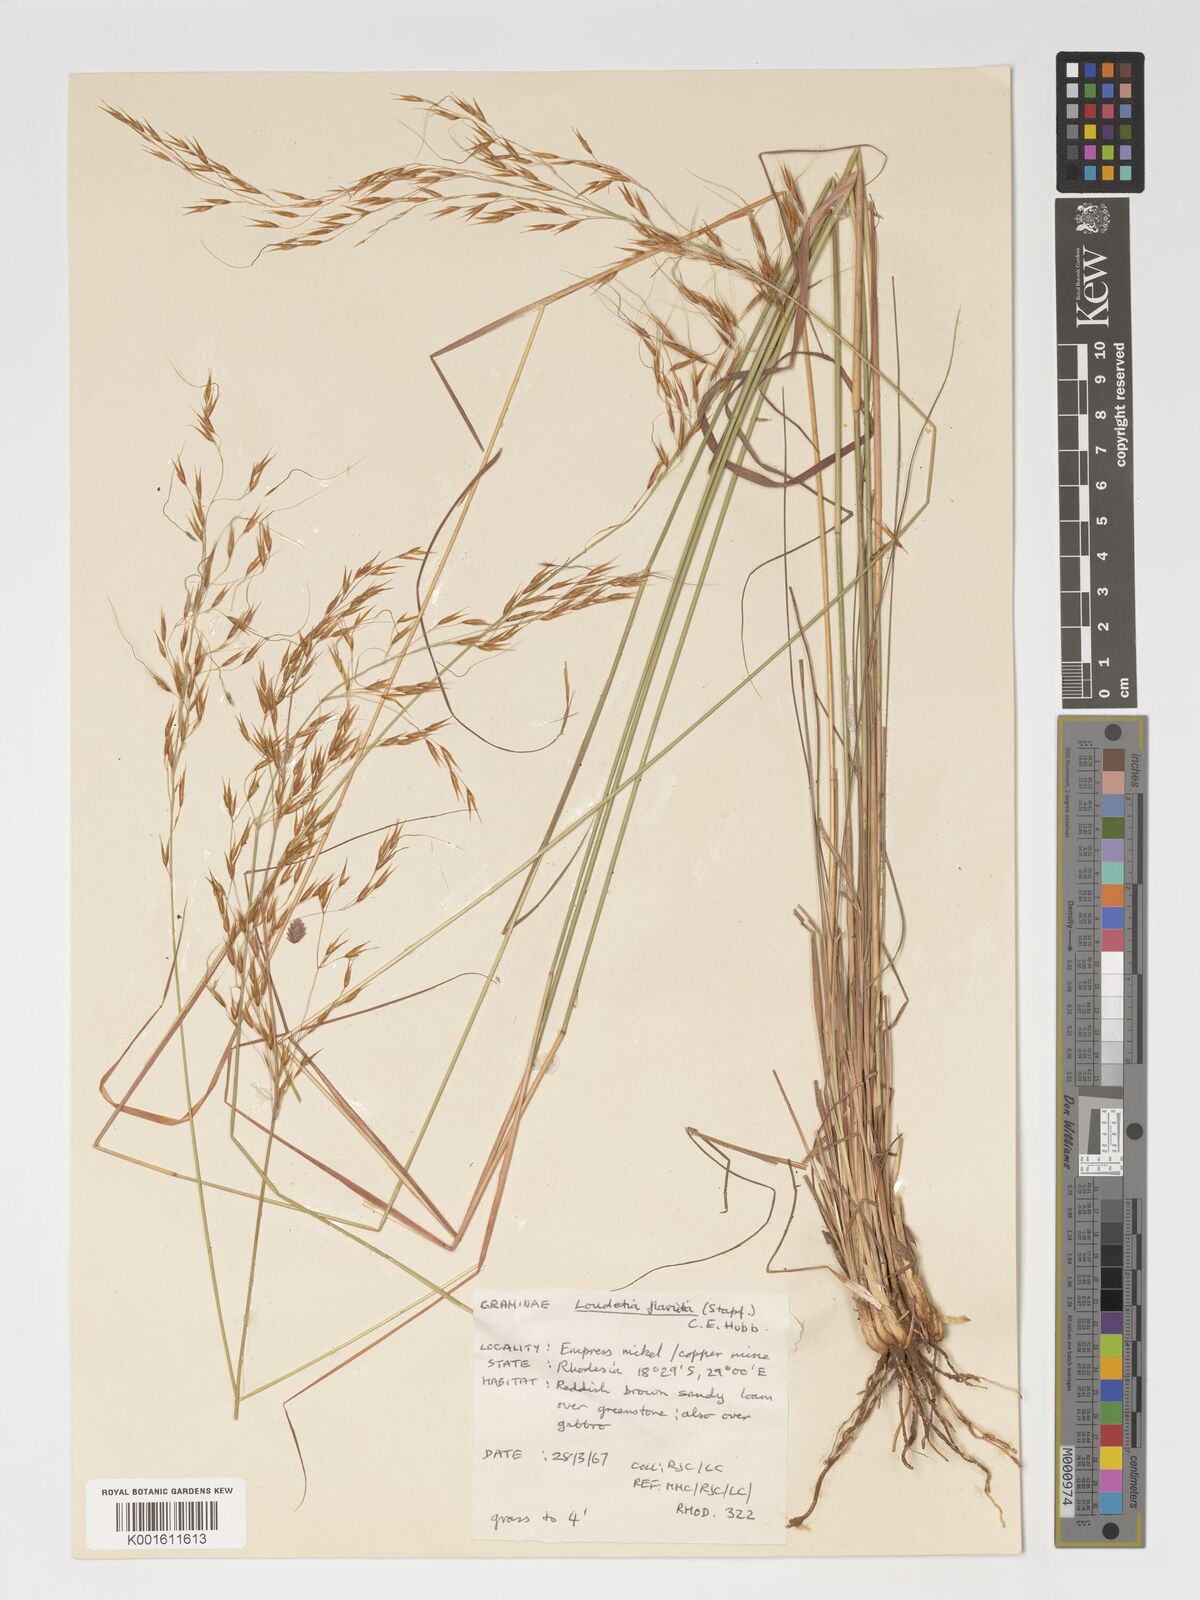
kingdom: Plantae
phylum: Tracheophyta
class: Liliopsida
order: Poales
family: Poaceae
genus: Loudetia
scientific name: Loudetia flavida
